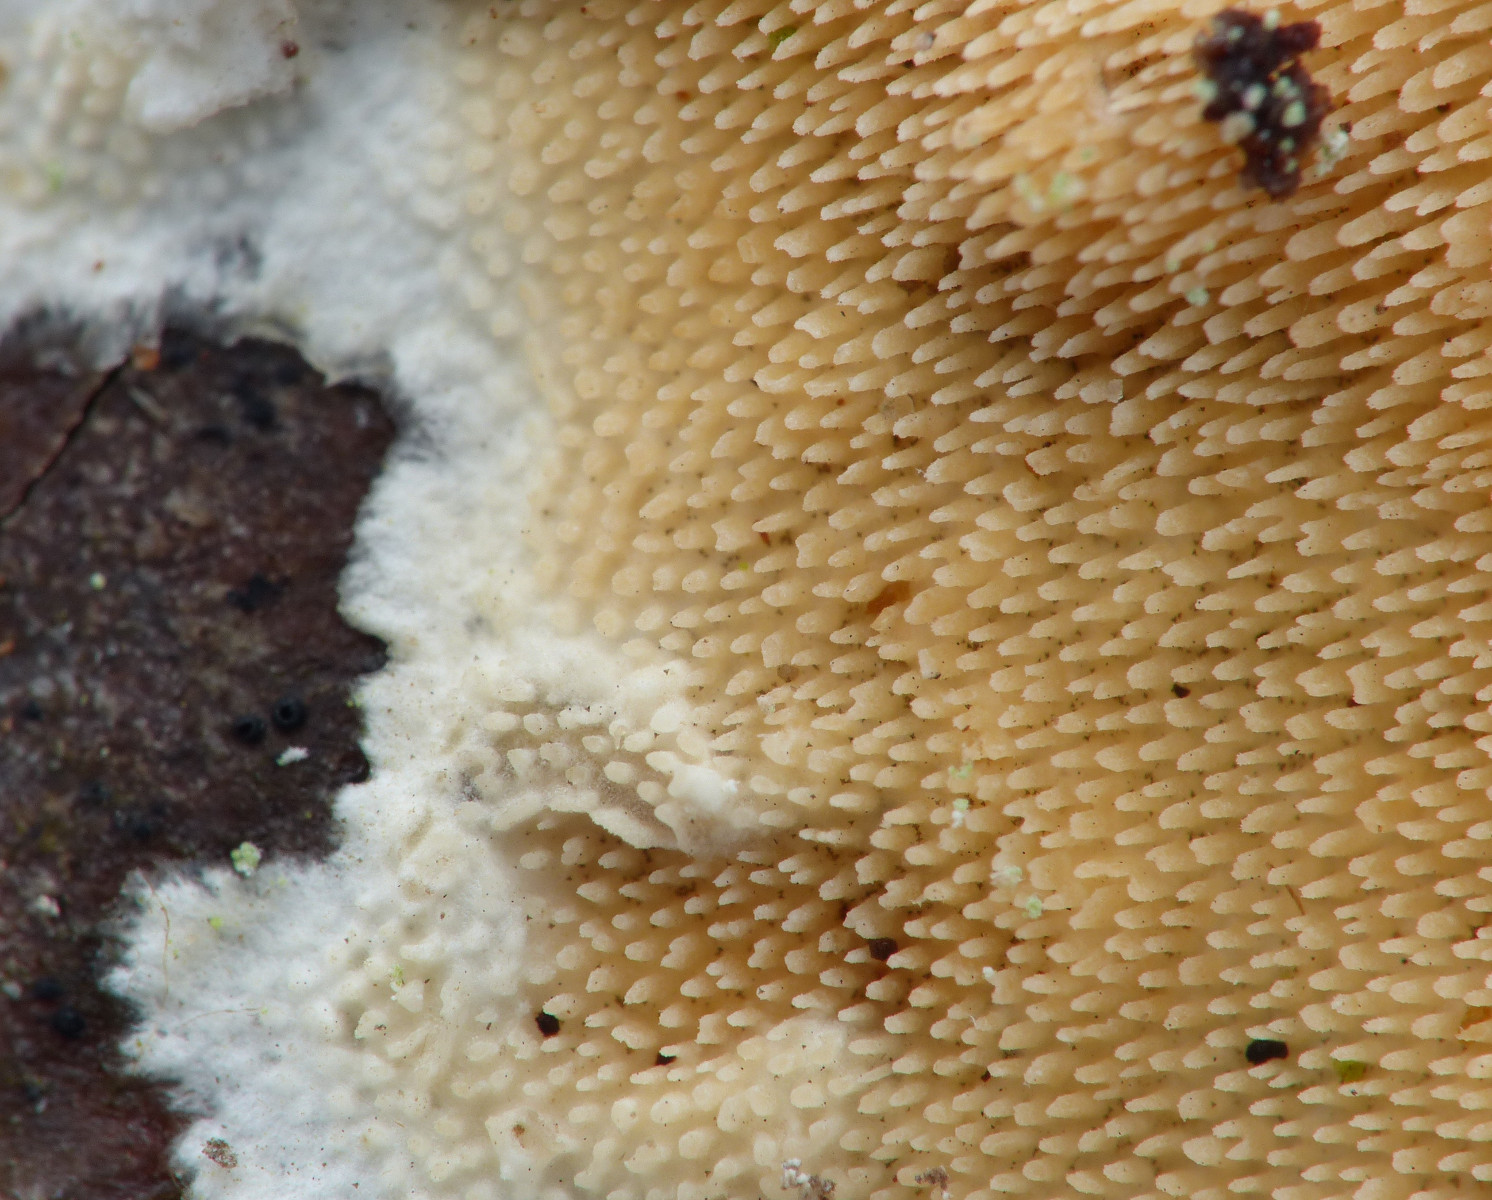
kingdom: Fungi
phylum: Basidiomycota
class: Agaricomycetes
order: Polyporales
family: Steccherinaceae
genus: Steccherinum
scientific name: Steccherinum ochraceum
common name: almindelig skønpig
